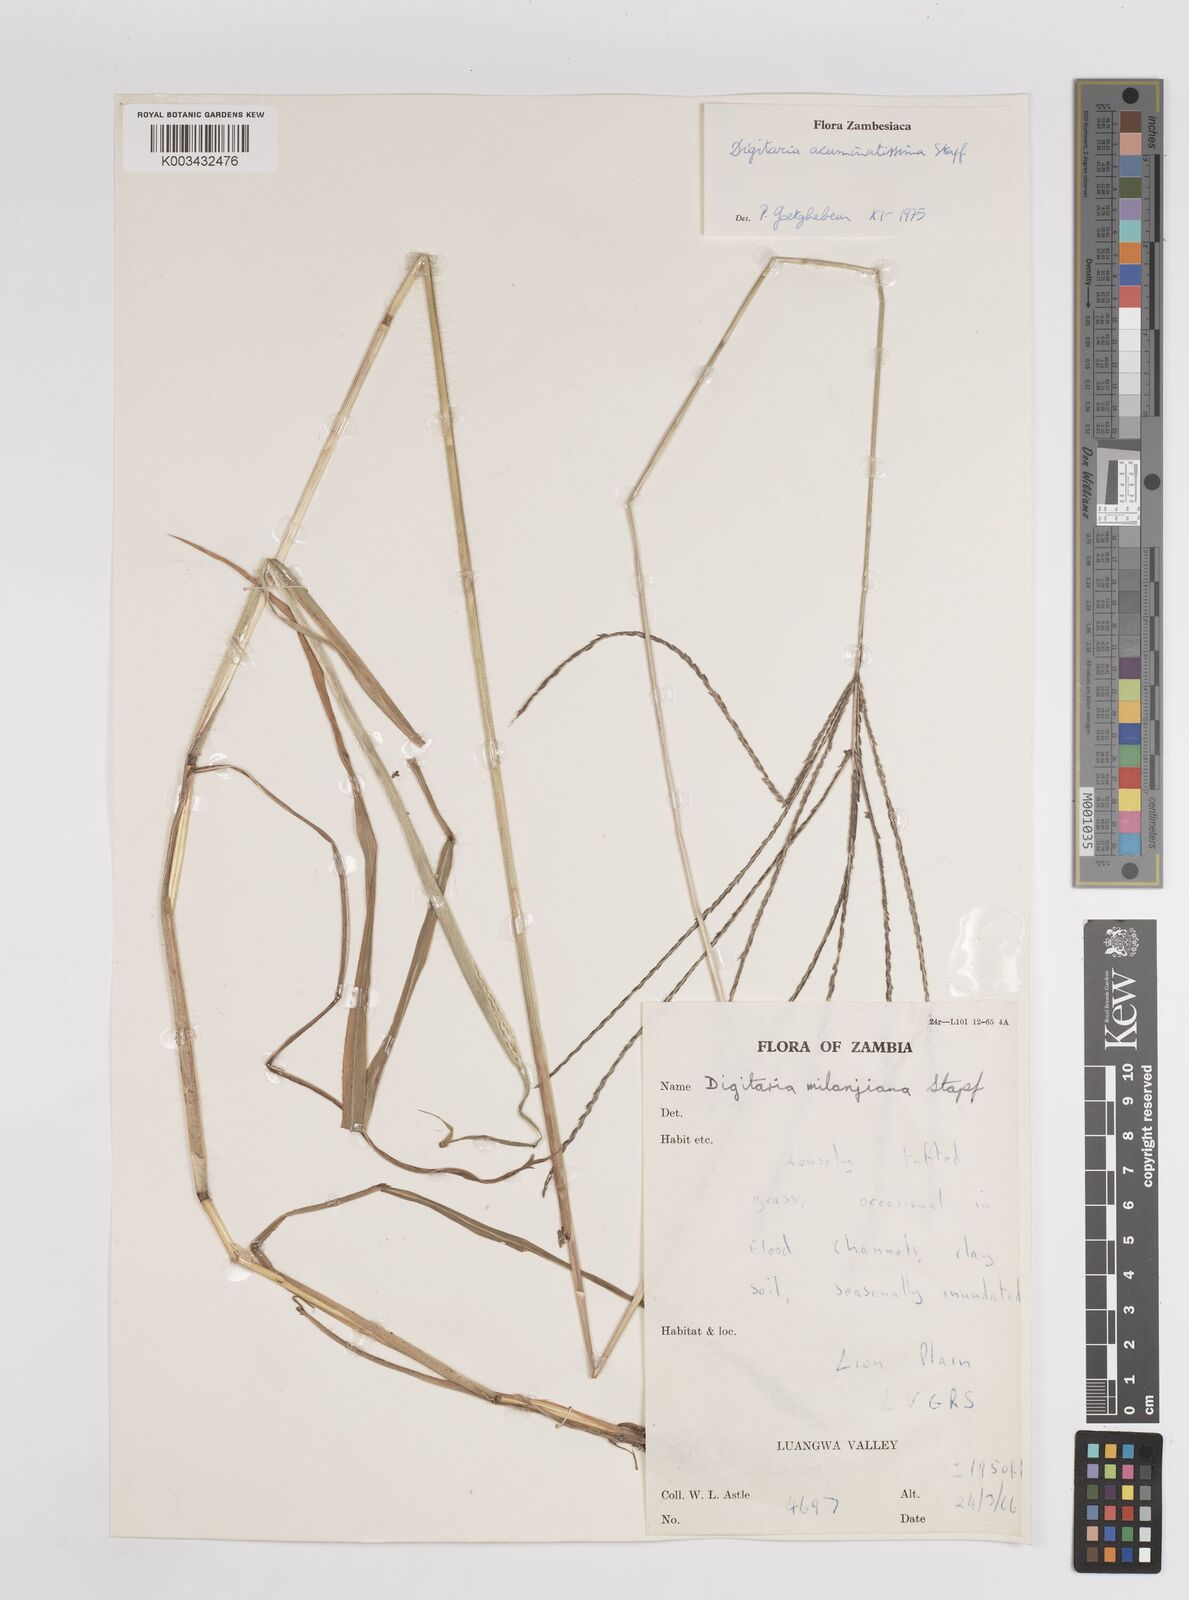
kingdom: Plantae
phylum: Tracheophyta
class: Liliopsida
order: Poales
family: Poaceae
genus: Digitaria
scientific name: Digitaria acuminatissima
